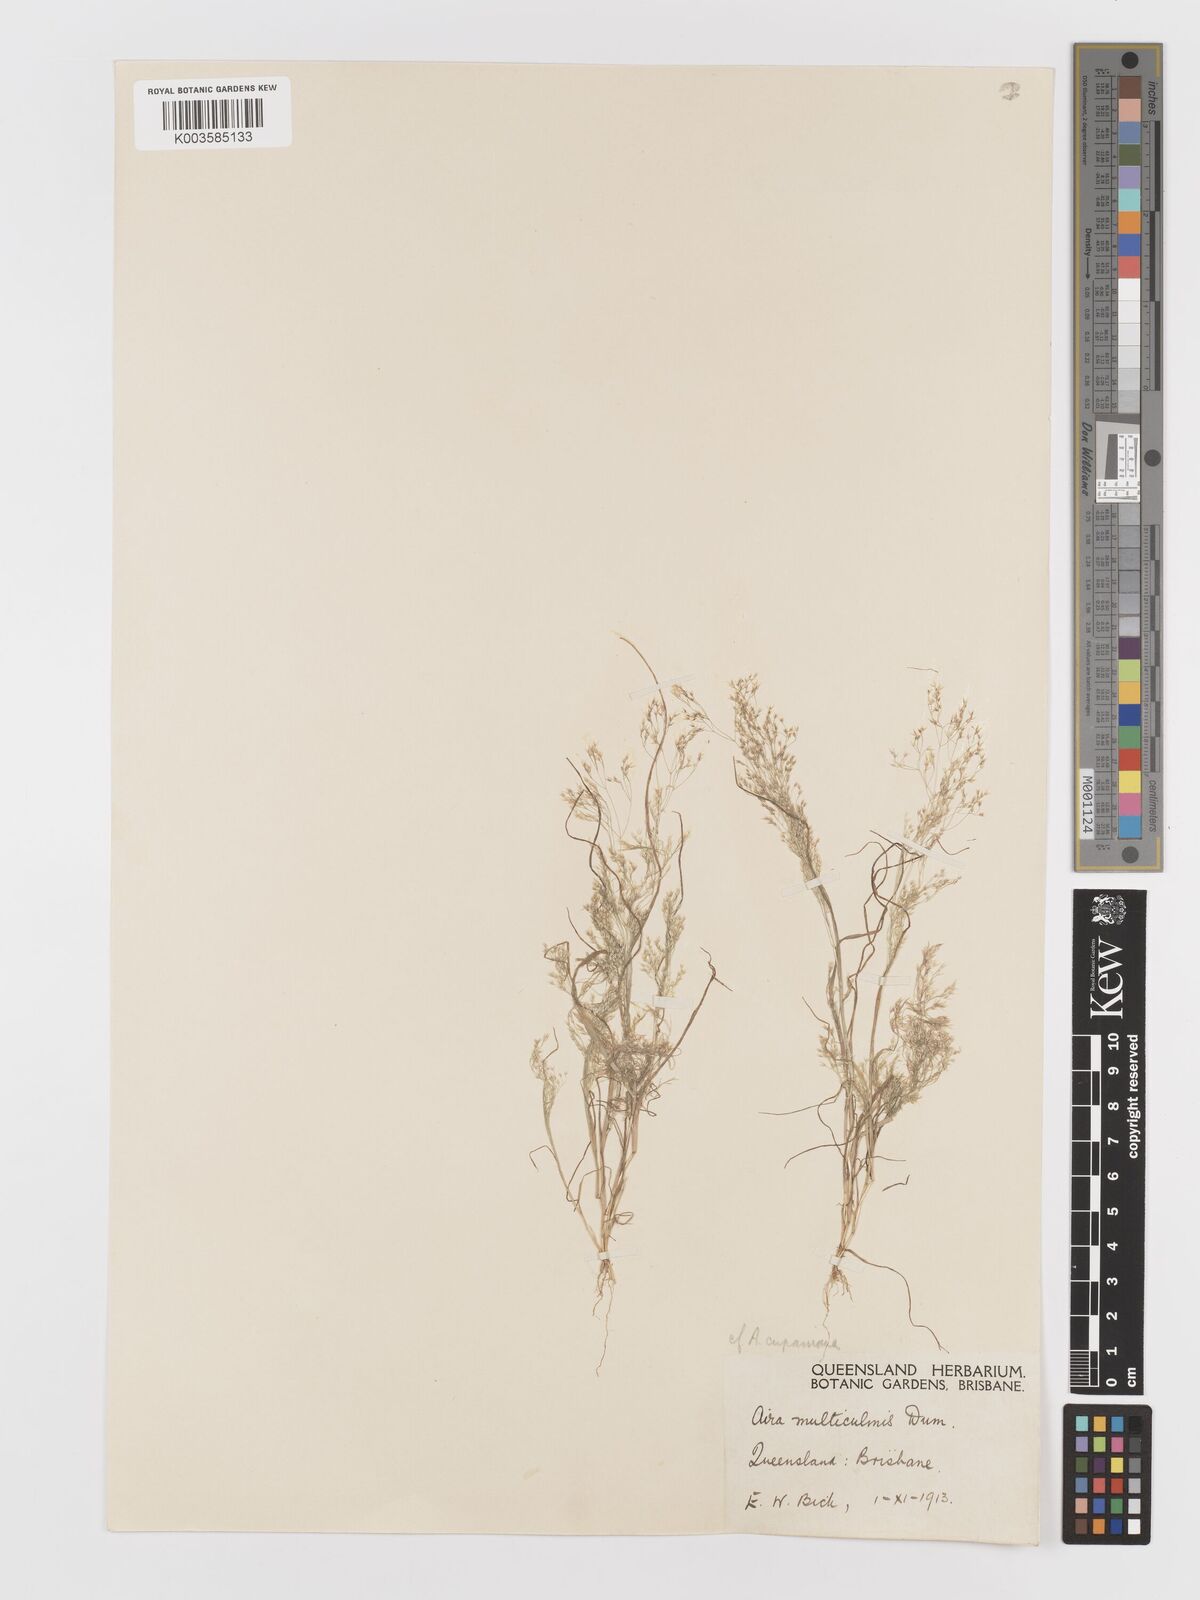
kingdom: Plantae
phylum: Tracheophyta
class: Liliopsida
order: Poales
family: Poaceae
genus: Aira
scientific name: Aira cupaniana
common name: Silver hairgrass
